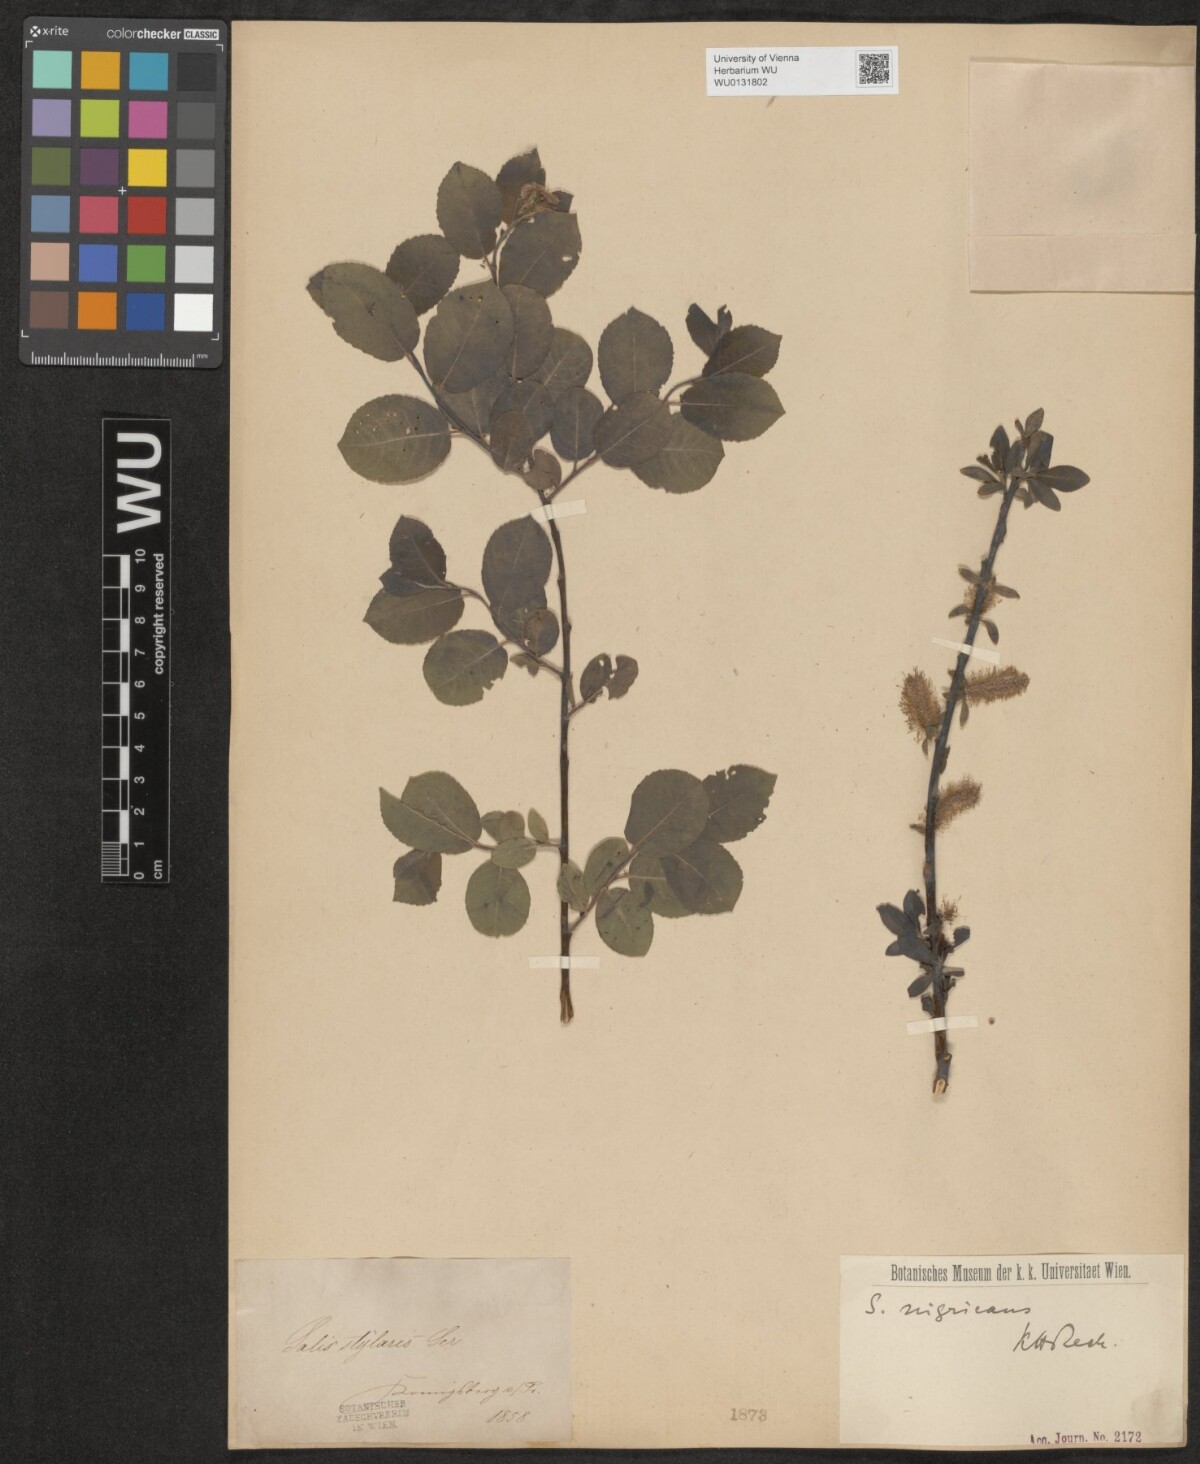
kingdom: Plantae
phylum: Tracheophyta
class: Magnoliopsida
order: Malpighiales
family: Salicaceae
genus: Salix
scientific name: Salix myrsinifolia
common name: Dark-leaved willow
